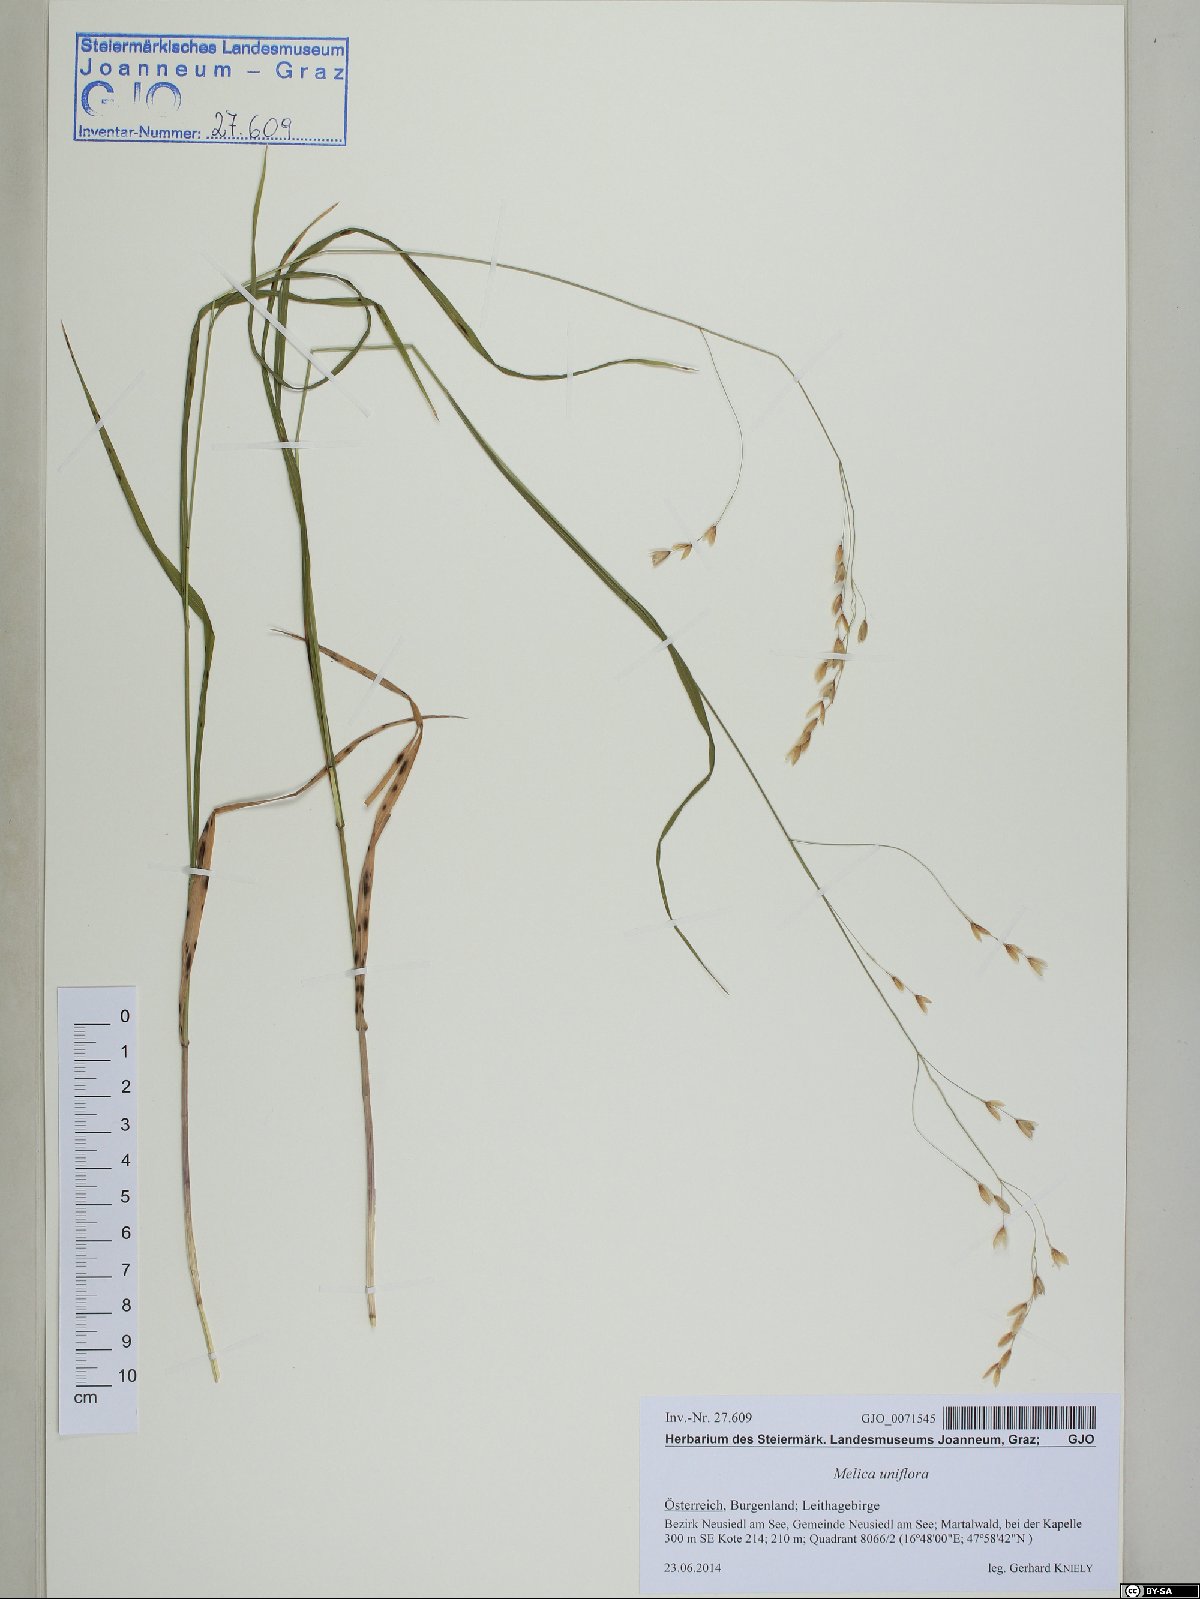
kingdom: Plantae
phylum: Tracheophyta
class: Liliopsida
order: Poales
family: Poaceae
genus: Melica
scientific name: Melica uniflora
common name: Wood melick
